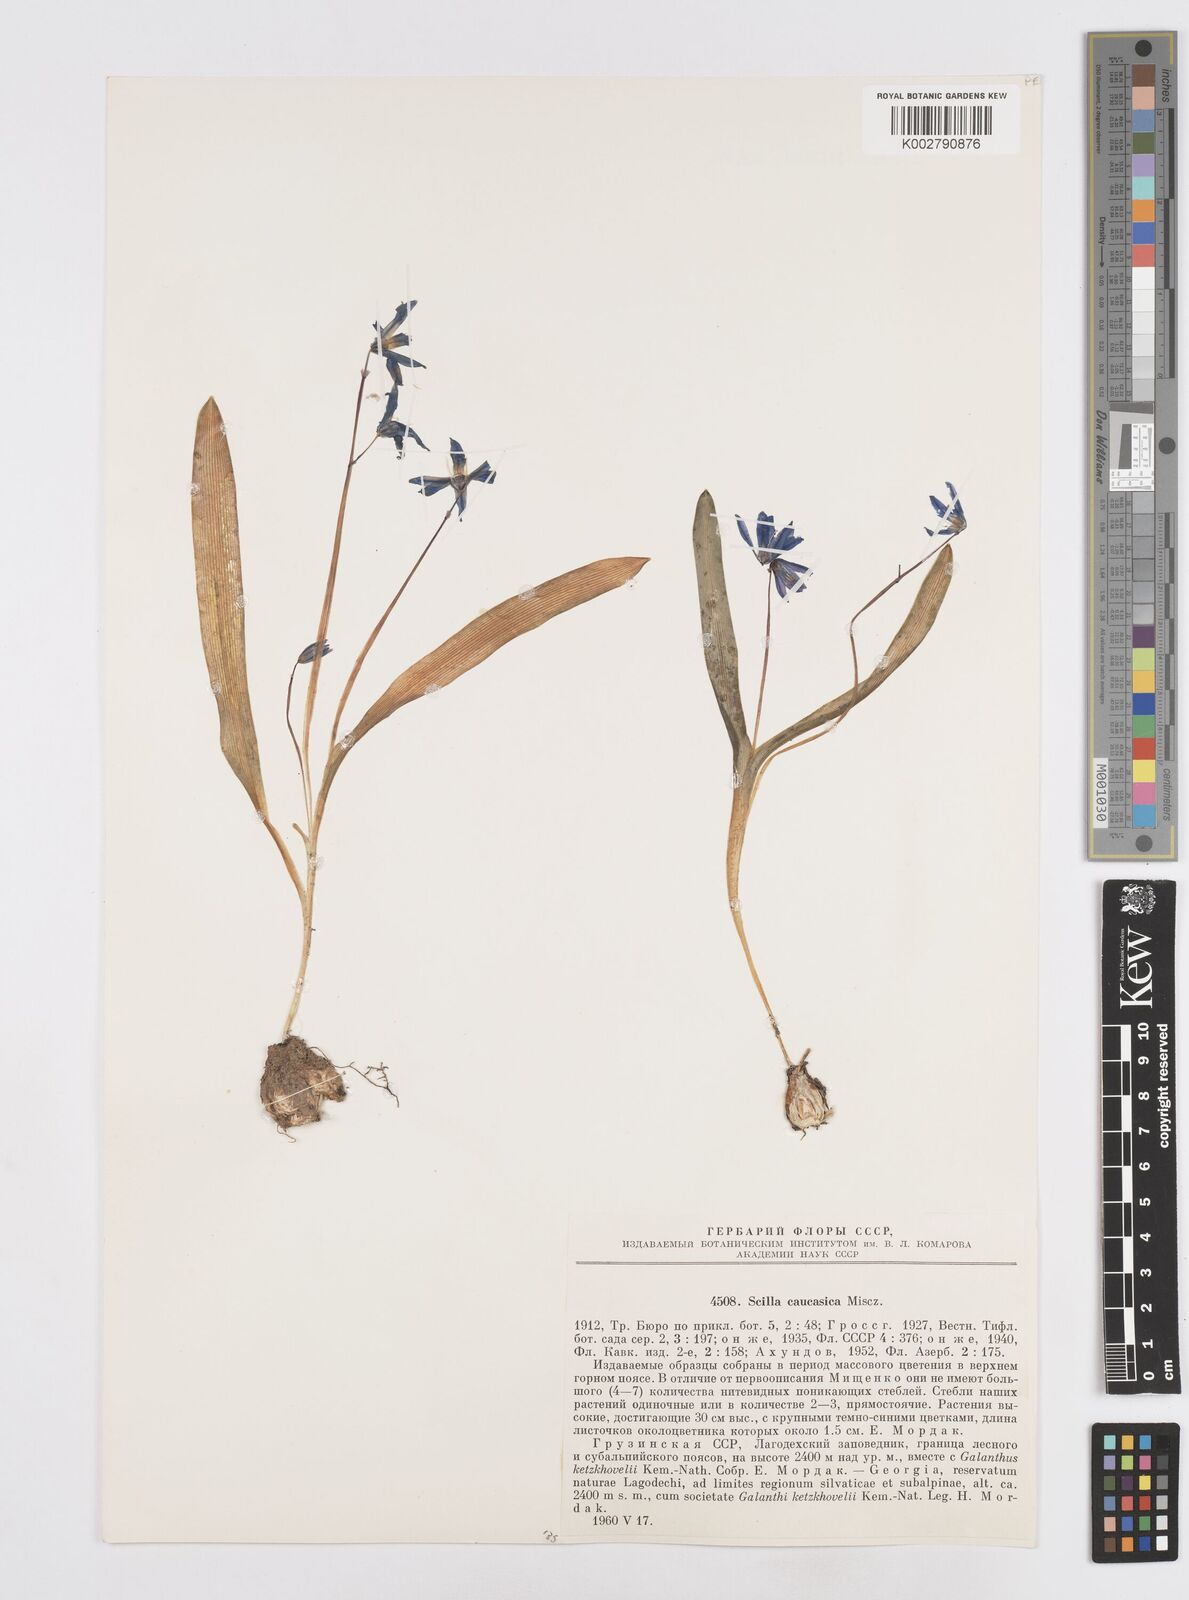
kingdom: Plantae
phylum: Tracheophyta
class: Liliopsida
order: Asparagales
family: Asparagaceae
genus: Scilla
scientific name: Scilla siberica
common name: Siberian squill
